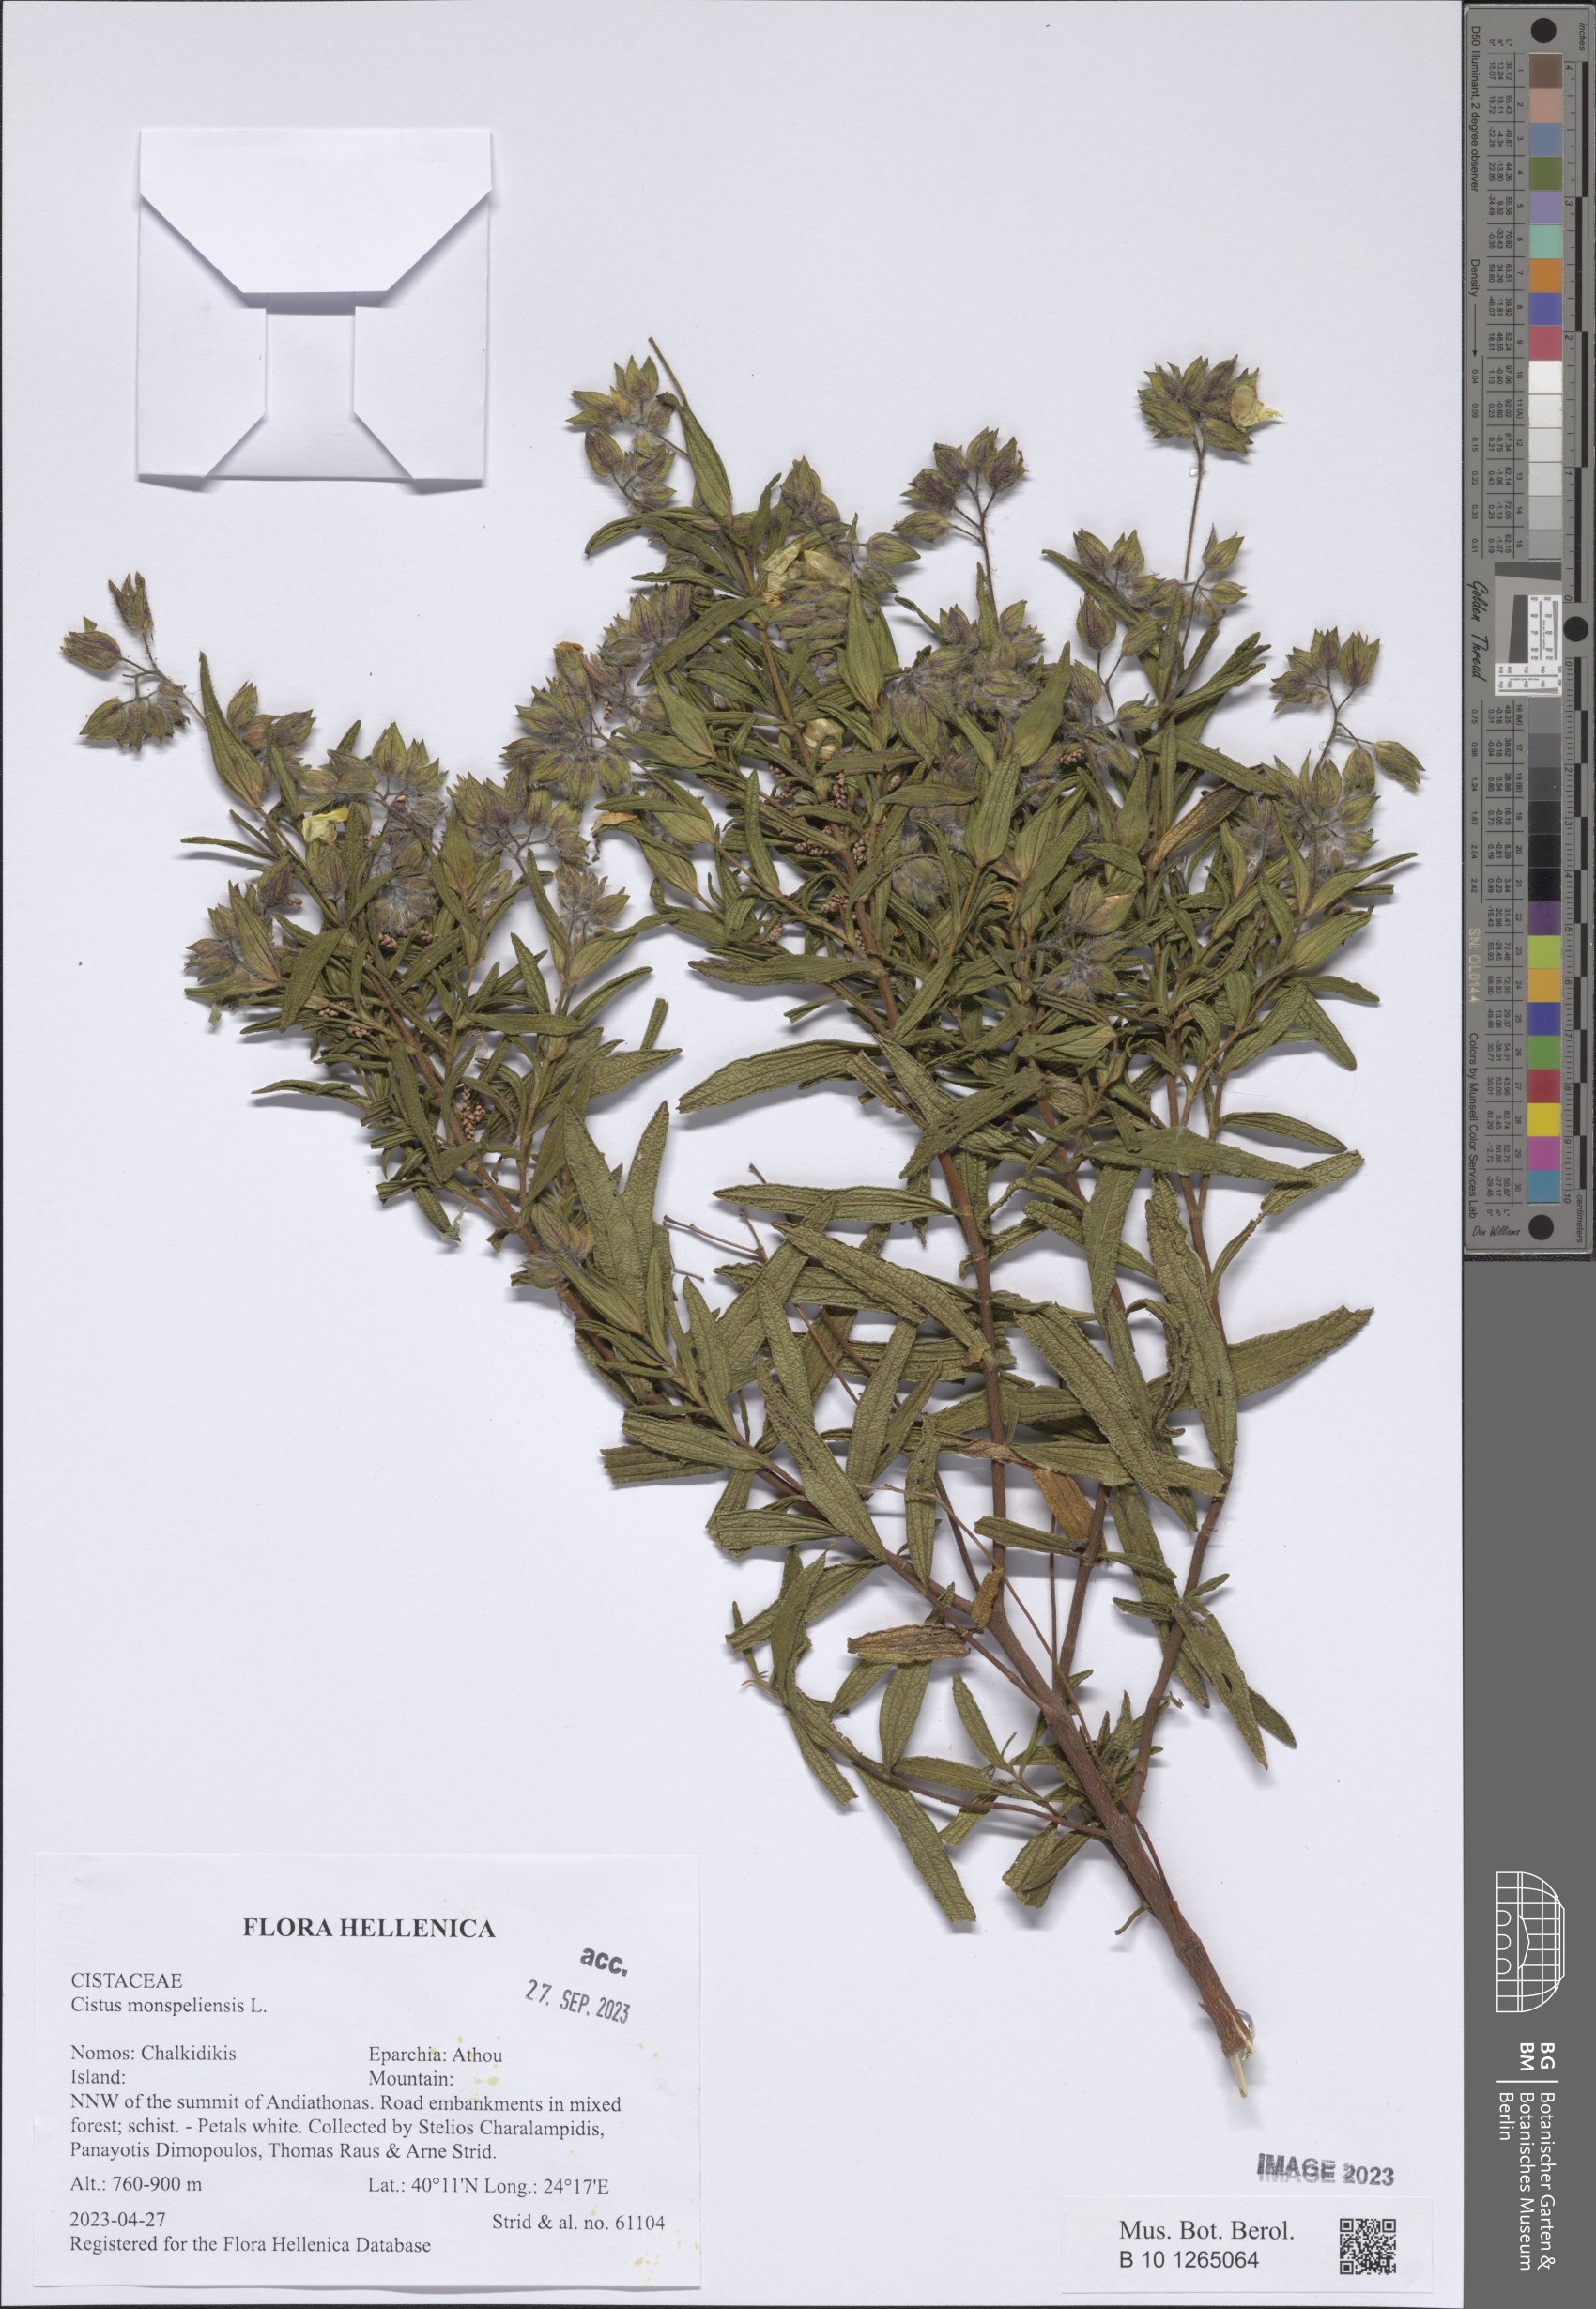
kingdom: Plantae
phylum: Tracheophyta
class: Magnoliopsida
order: Malvales
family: Cistaceae
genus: Cistus
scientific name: Cistus monspeliensis
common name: Montpelier cistus
